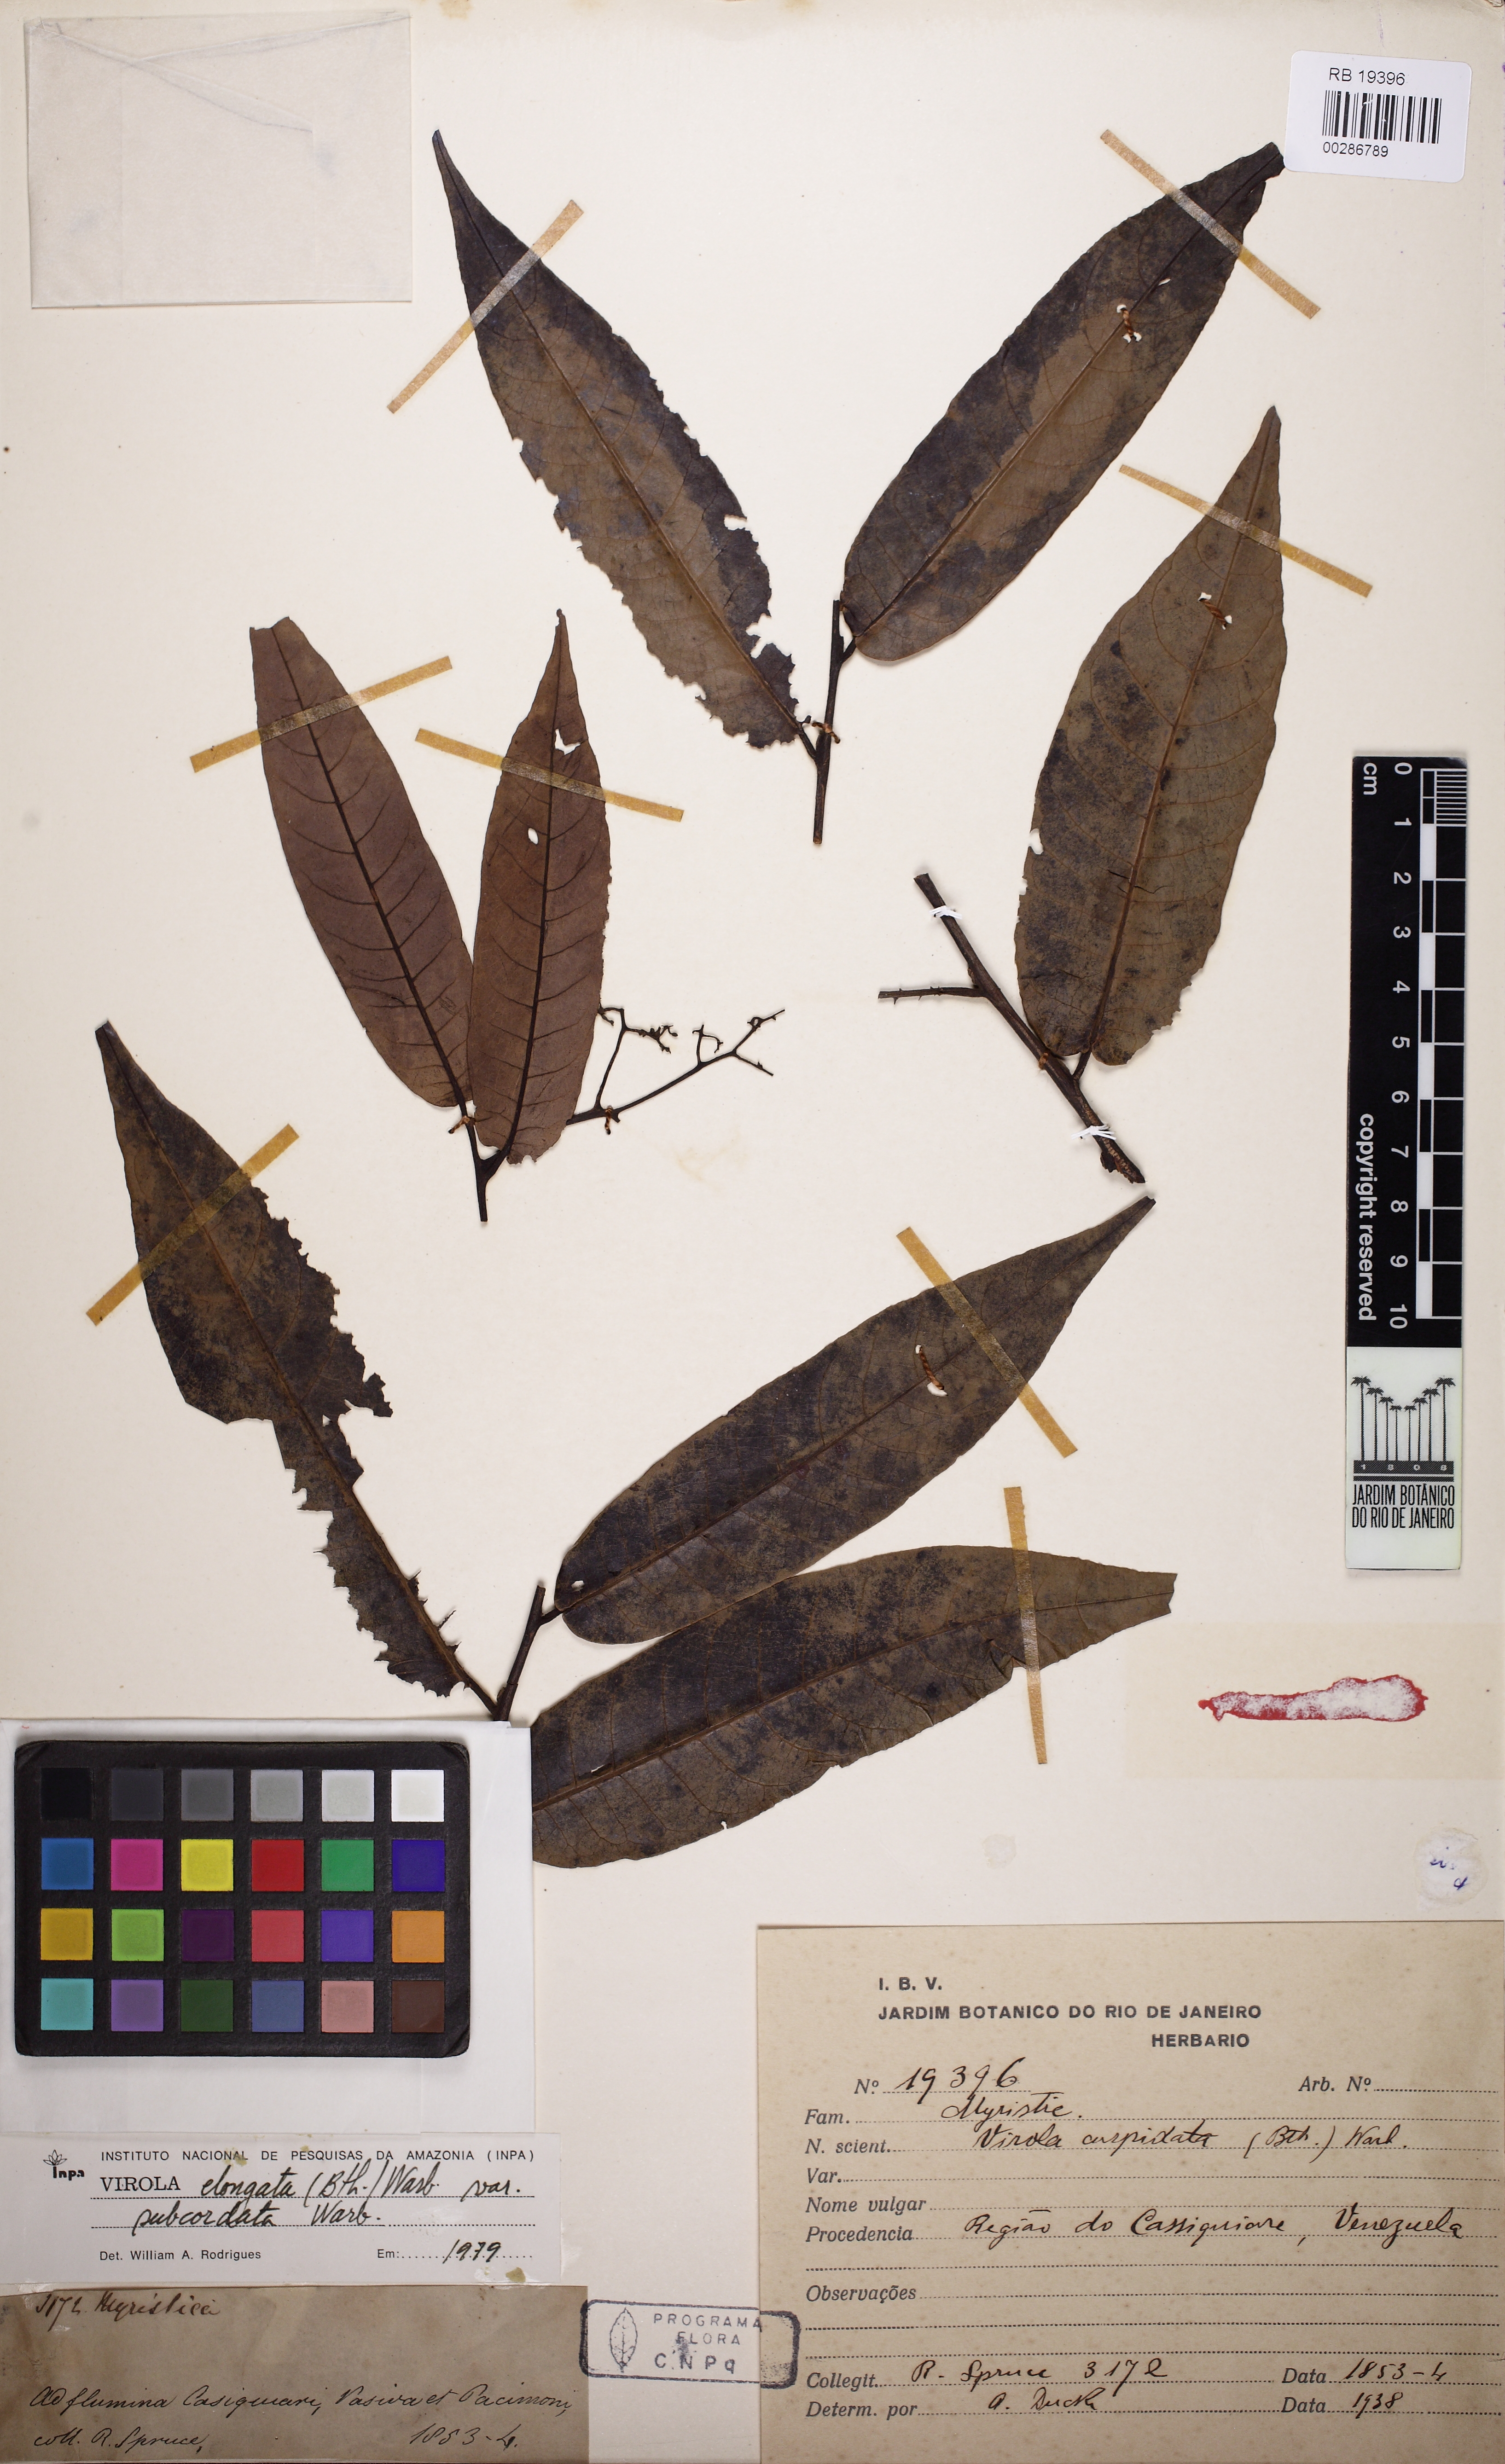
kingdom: Plantae
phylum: Tracheophyta
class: Magnoliopsida
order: Magnoliales
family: Myristicaceae
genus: Virola
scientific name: Virola elongata
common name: Sacred virola
